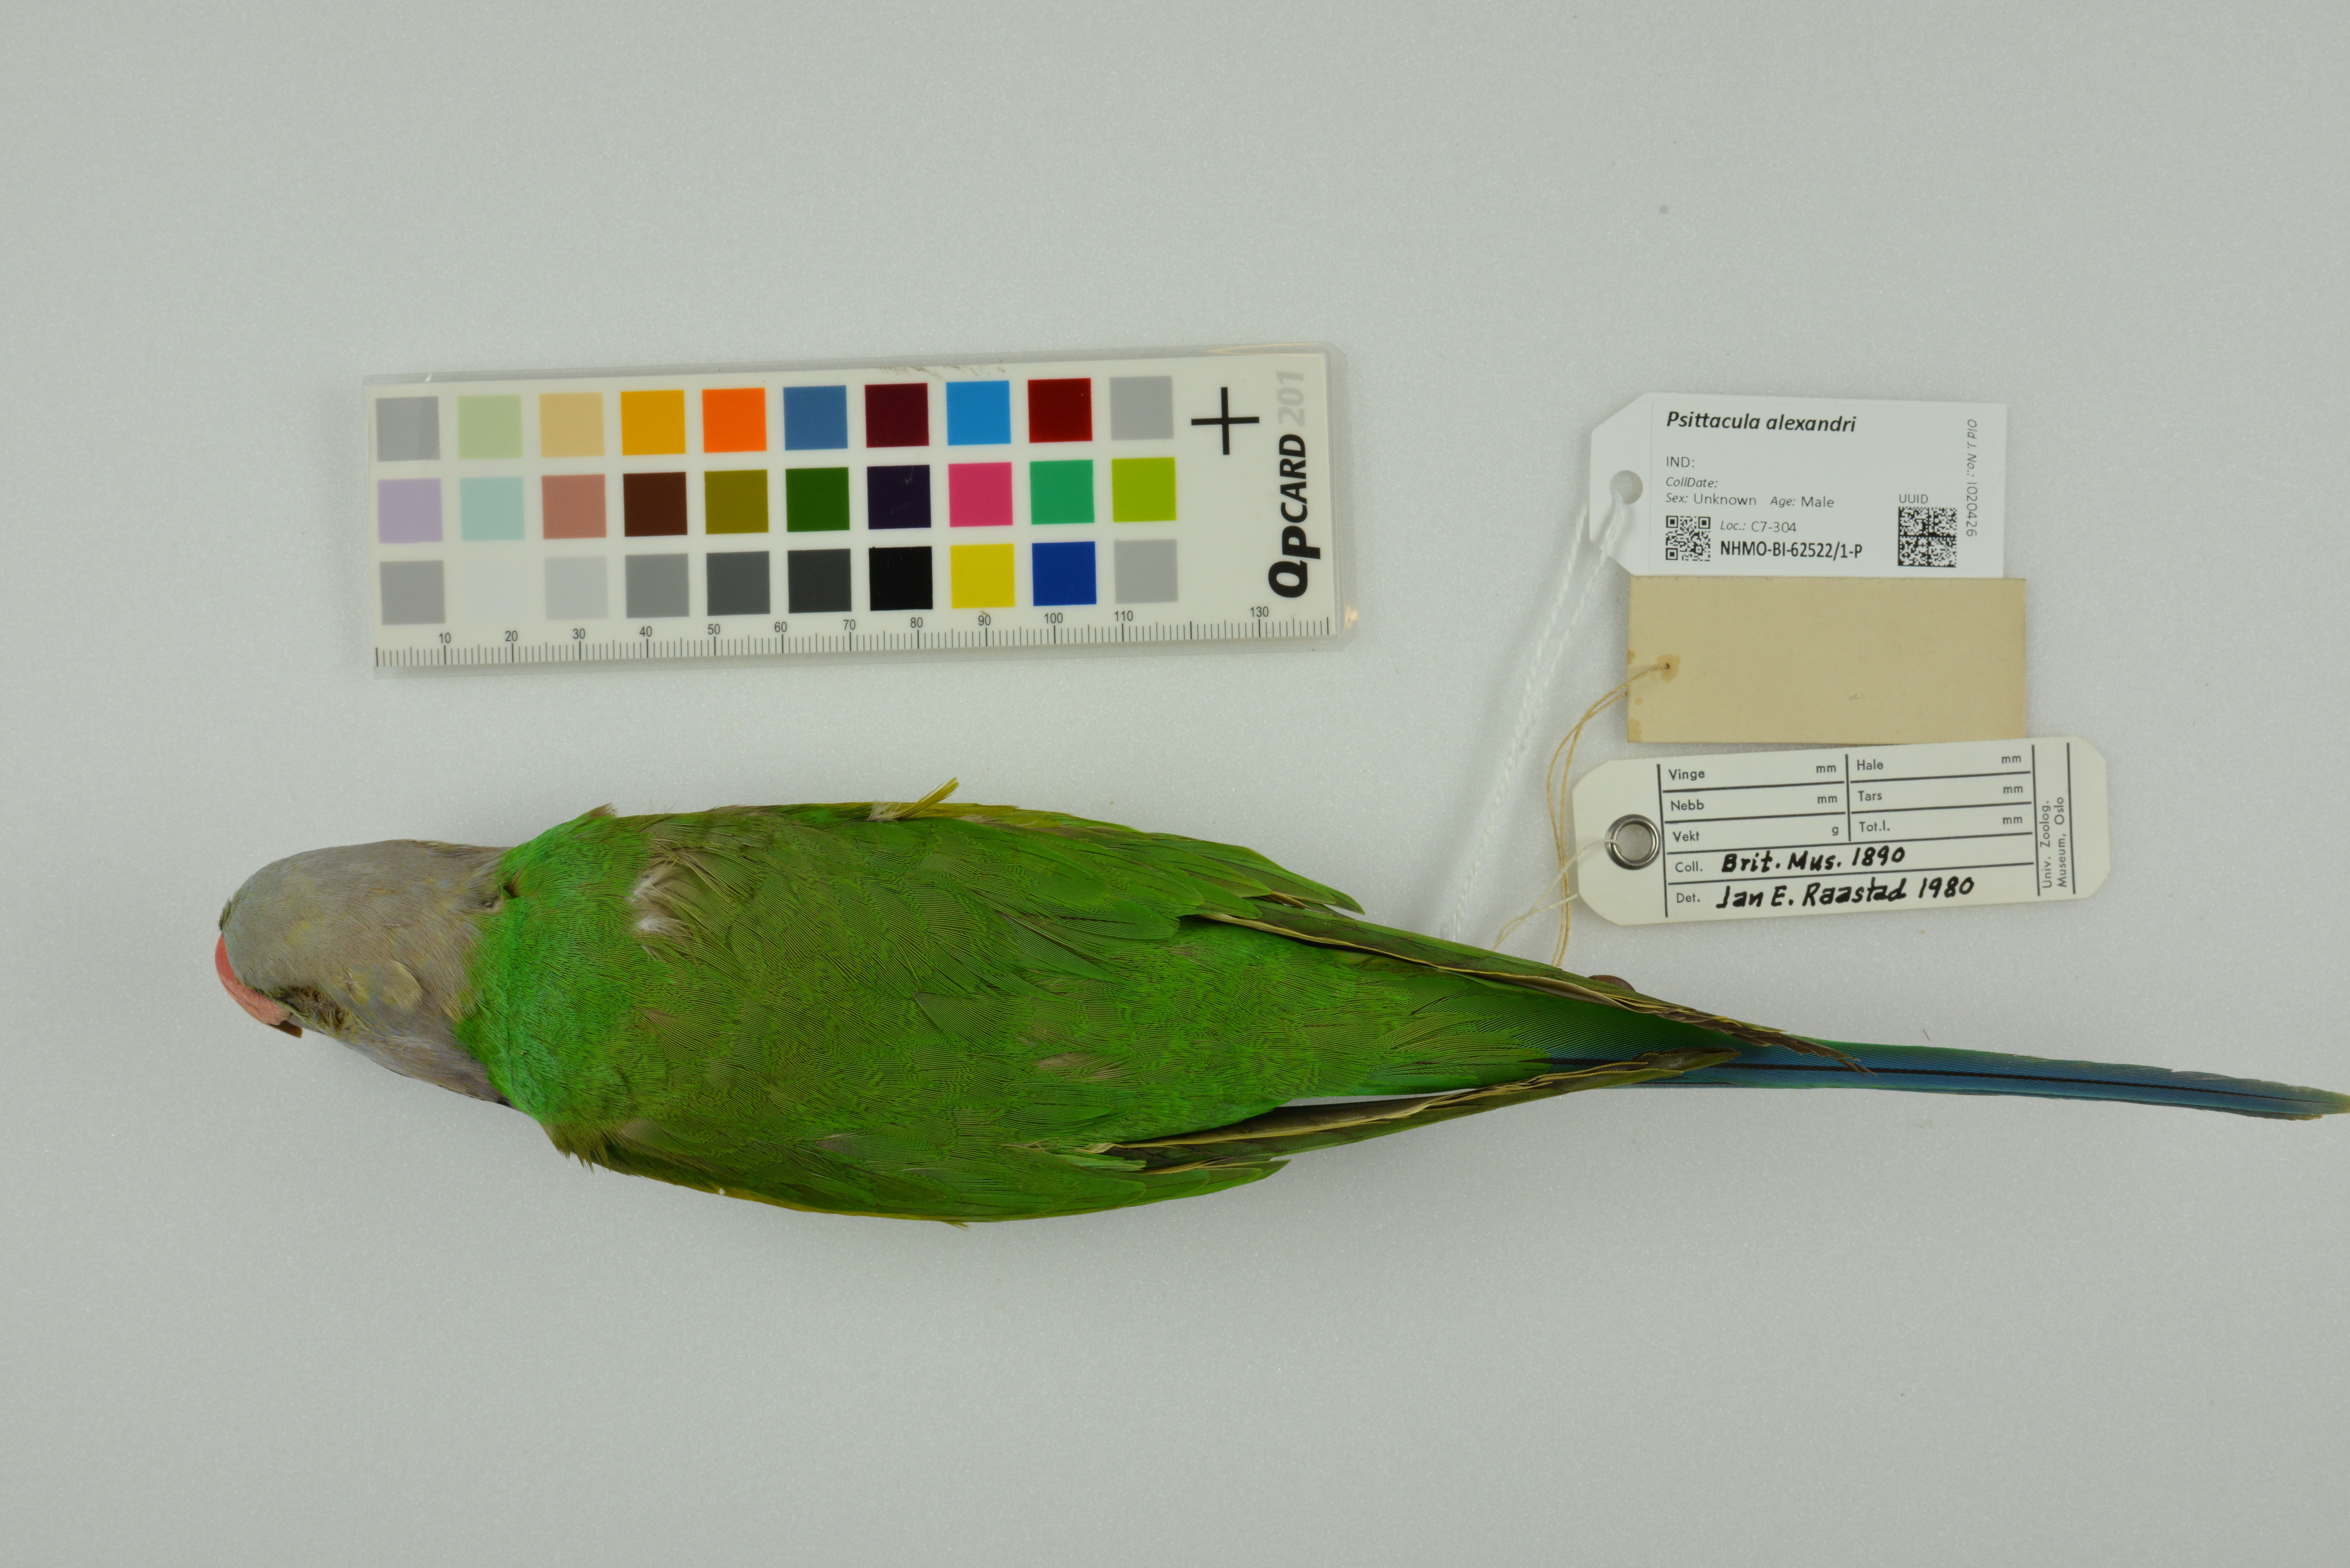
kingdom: Animalia
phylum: Chordata
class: Aves
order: Psittaciformes
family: Psittacidae
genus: Psittacula
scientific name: Psittacula alexandri
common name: Red-breasted parakeet
